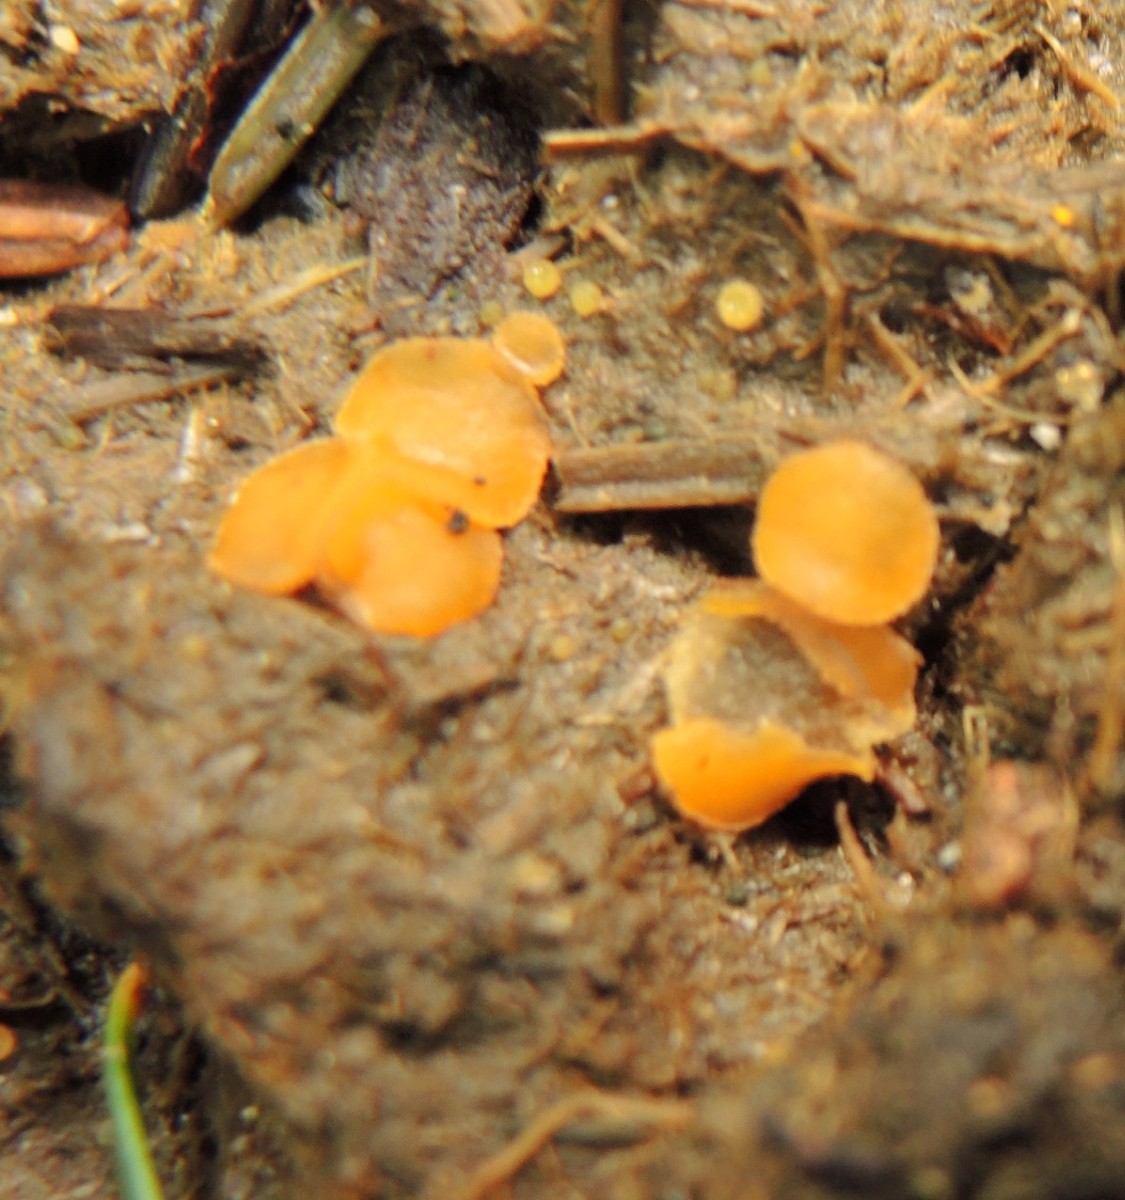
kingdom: Fungi
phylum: Ascomycota
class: Pezizomycetes
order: Pezizales
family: Pyronemataceae
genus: Cheilymenia
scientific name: Cheilymenia granulata
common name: møgbæger
